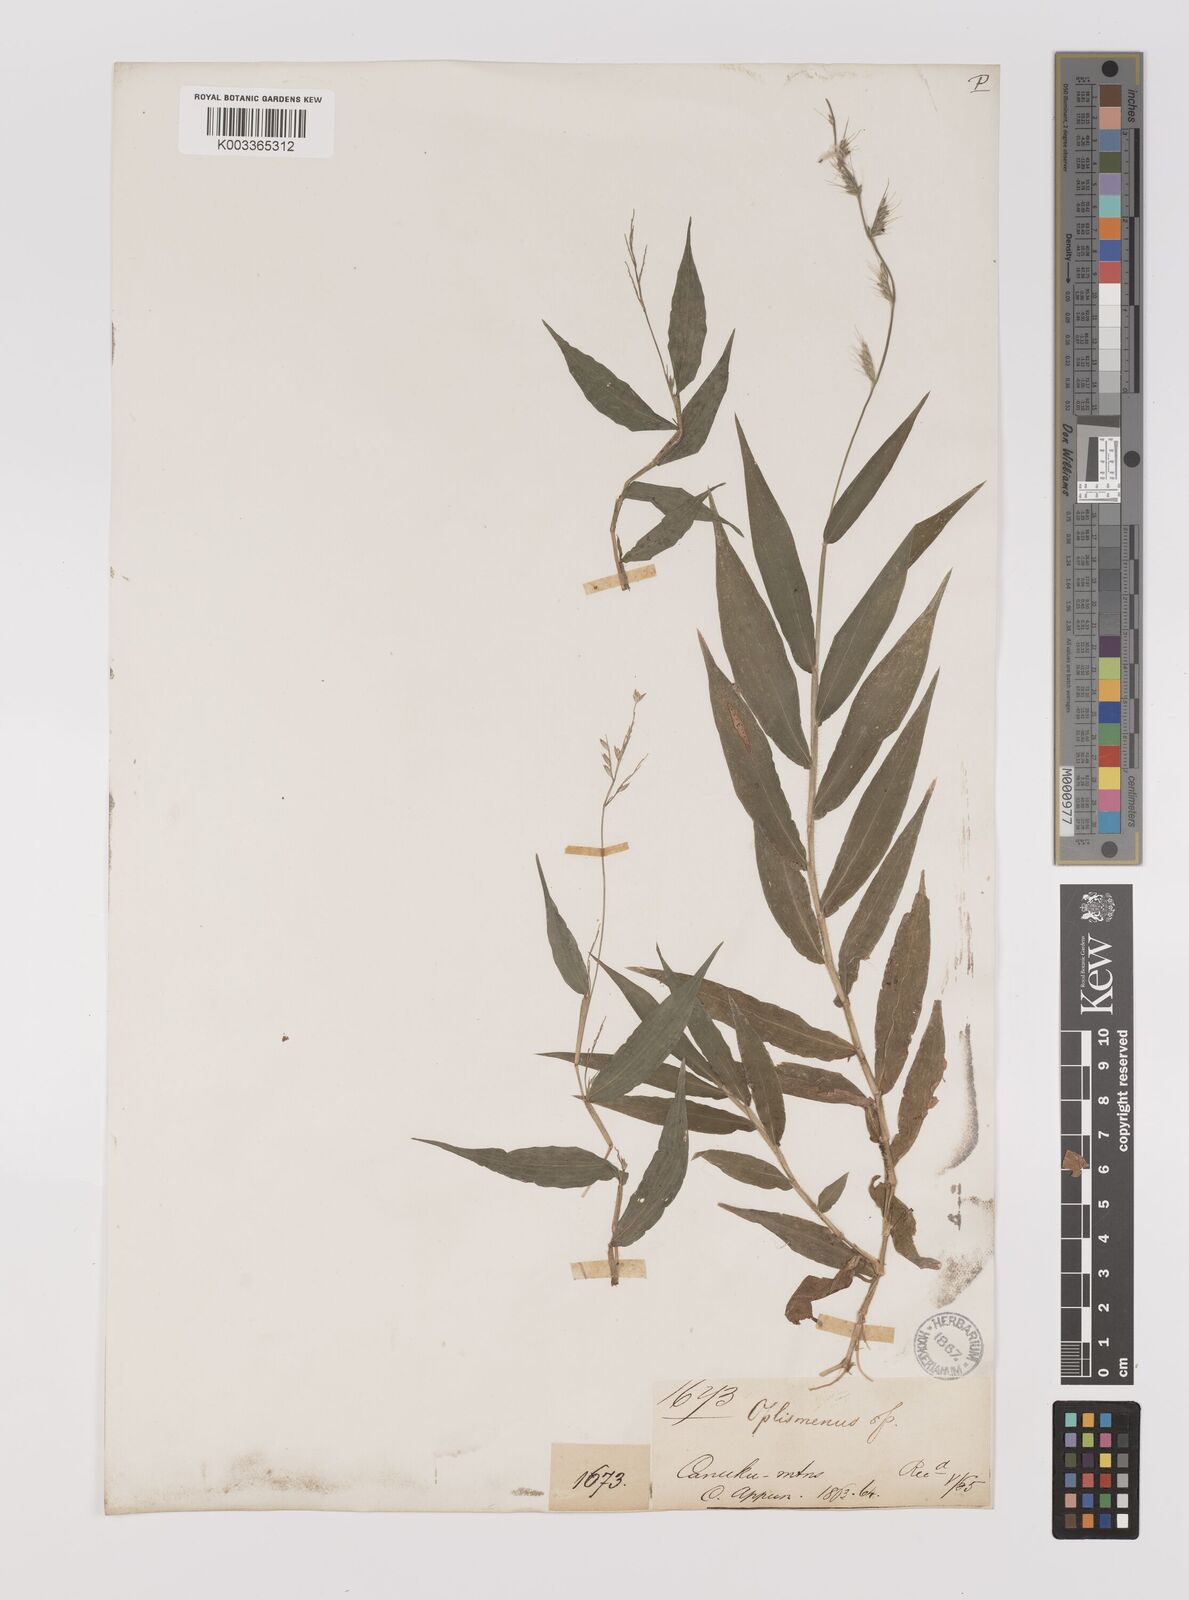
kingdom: Plantae
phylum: Tracheophyta
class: Liliopsida
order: Poales
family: Poaceae
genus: Oplismenus
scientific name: Oplismenus hirtellus
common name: Basketgrass
